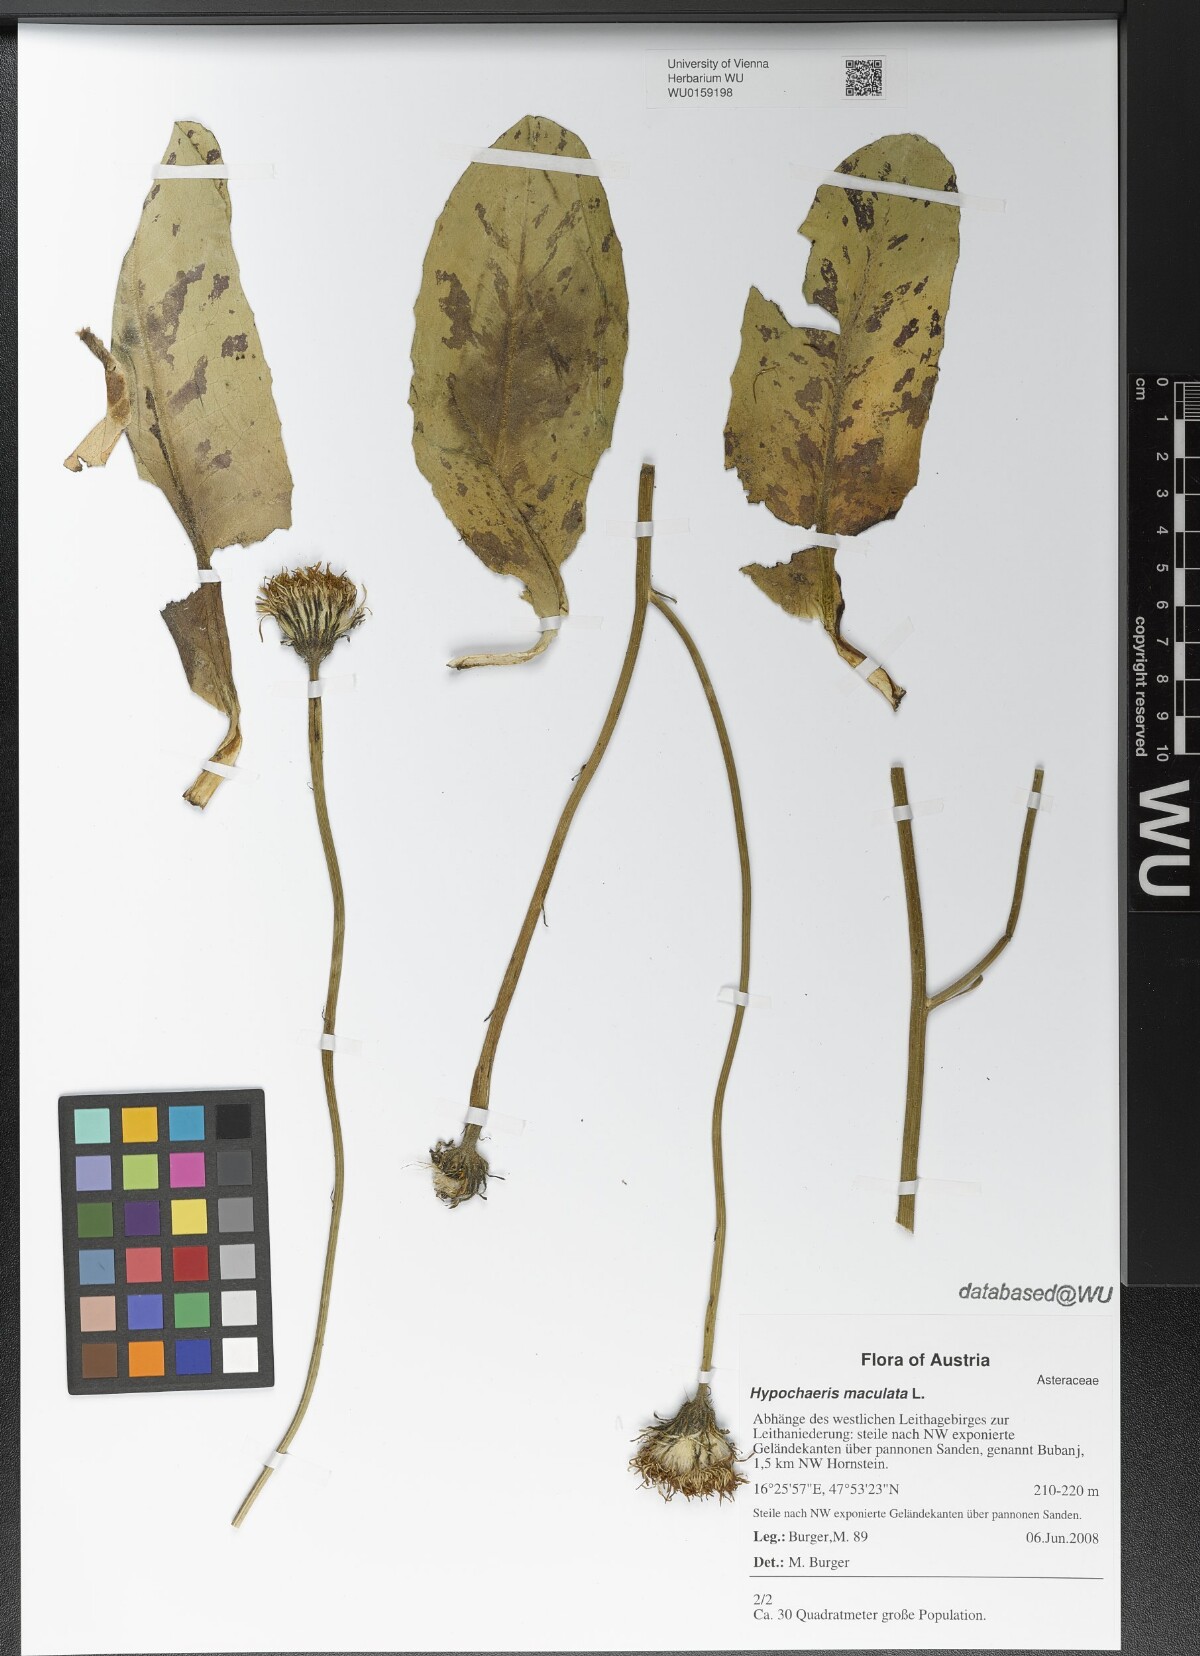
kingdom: Plantae
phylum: Tracheophyta
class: Magnoliopsida
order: Asterales
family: Asteraceae
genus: Trommsdorffia
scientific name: Trommsdorffia maculata
